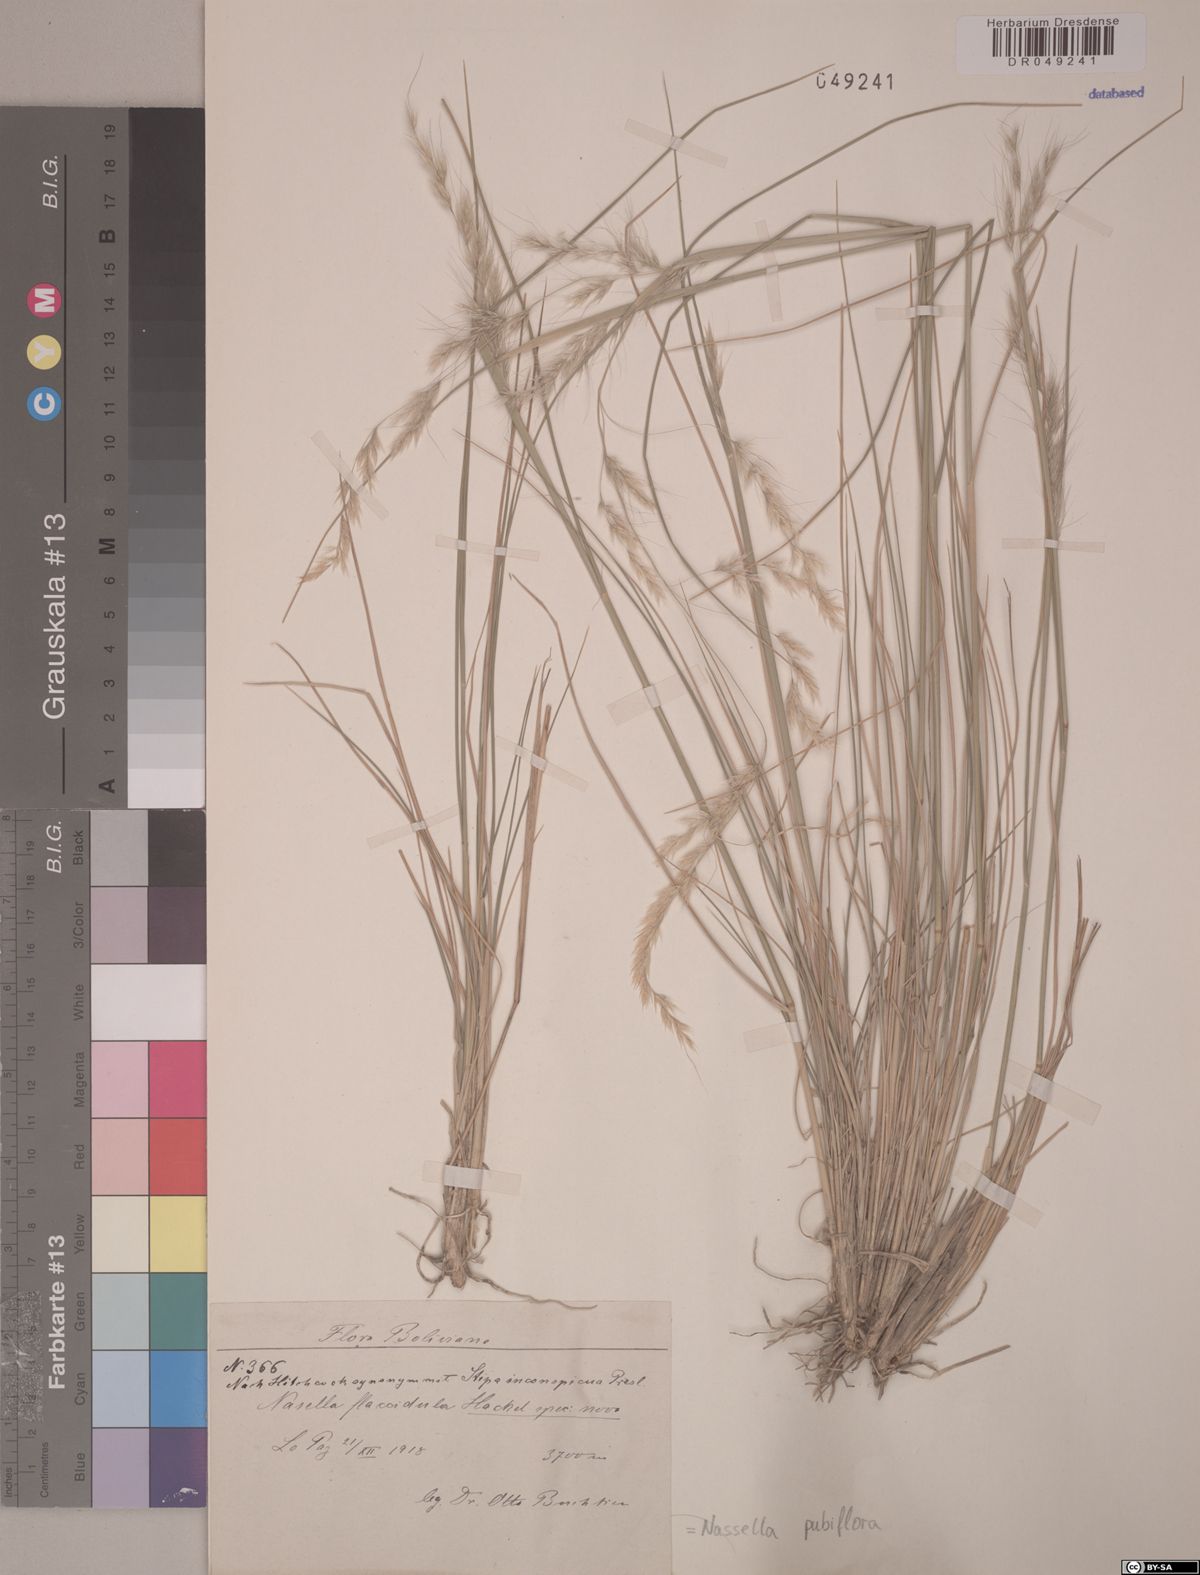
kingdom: Plantae
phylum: Tracheophyta
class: Liliopsida
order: Poales
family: Poaceae
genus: Nassella
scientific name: Nassella pubiflora
